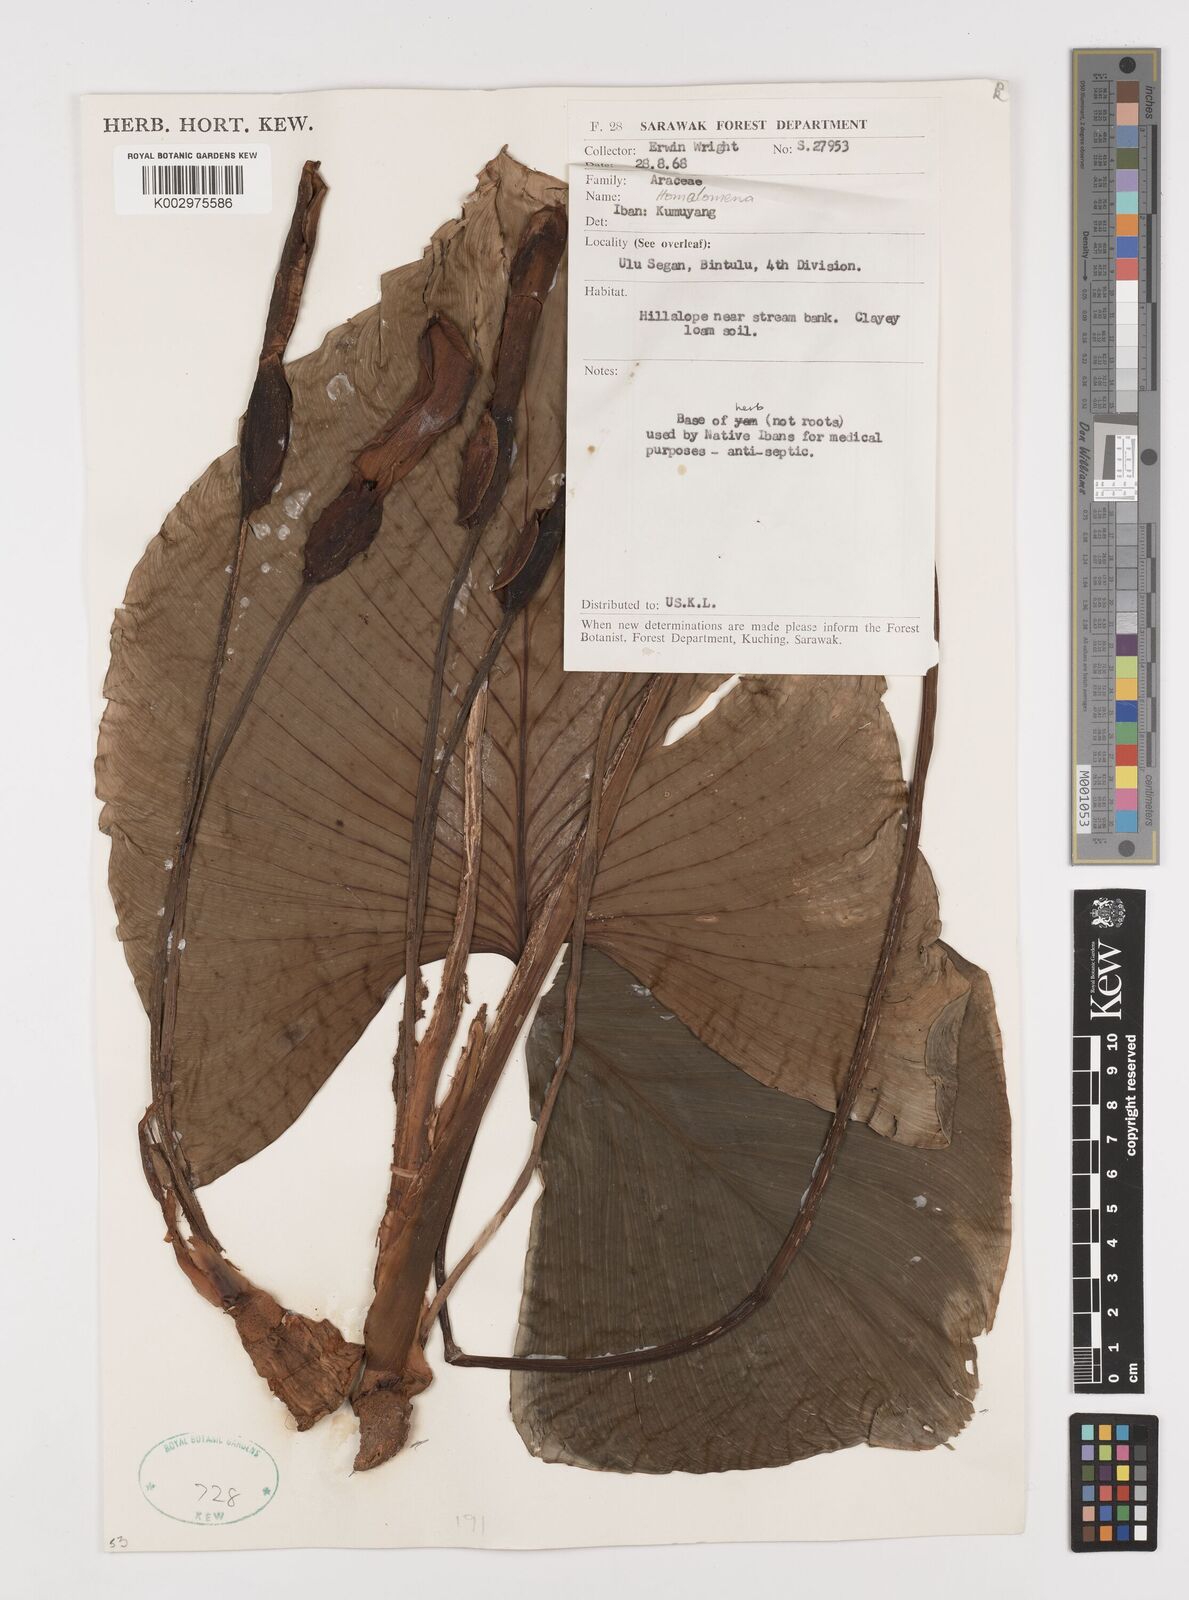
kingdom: Plantae
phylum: Tracheophyta
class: Liliopsida
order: Alismatales
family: Araceae
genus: Homalomena
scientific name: Homalomena
